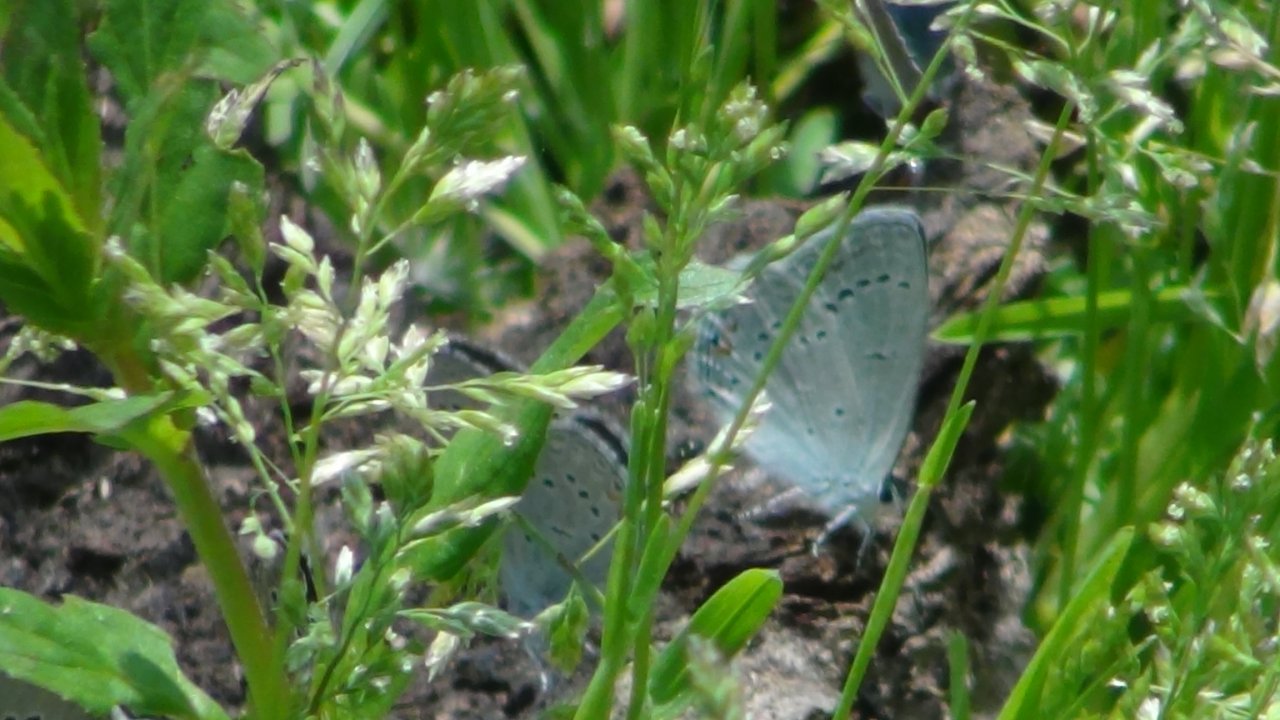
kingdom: Animalia
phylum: Arthropoda
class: Insecta
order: Lepidoptera
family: Lycaenidae
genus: Elkalyce
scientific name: Elkalyce amyntula
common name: Western Tailed-Blue
